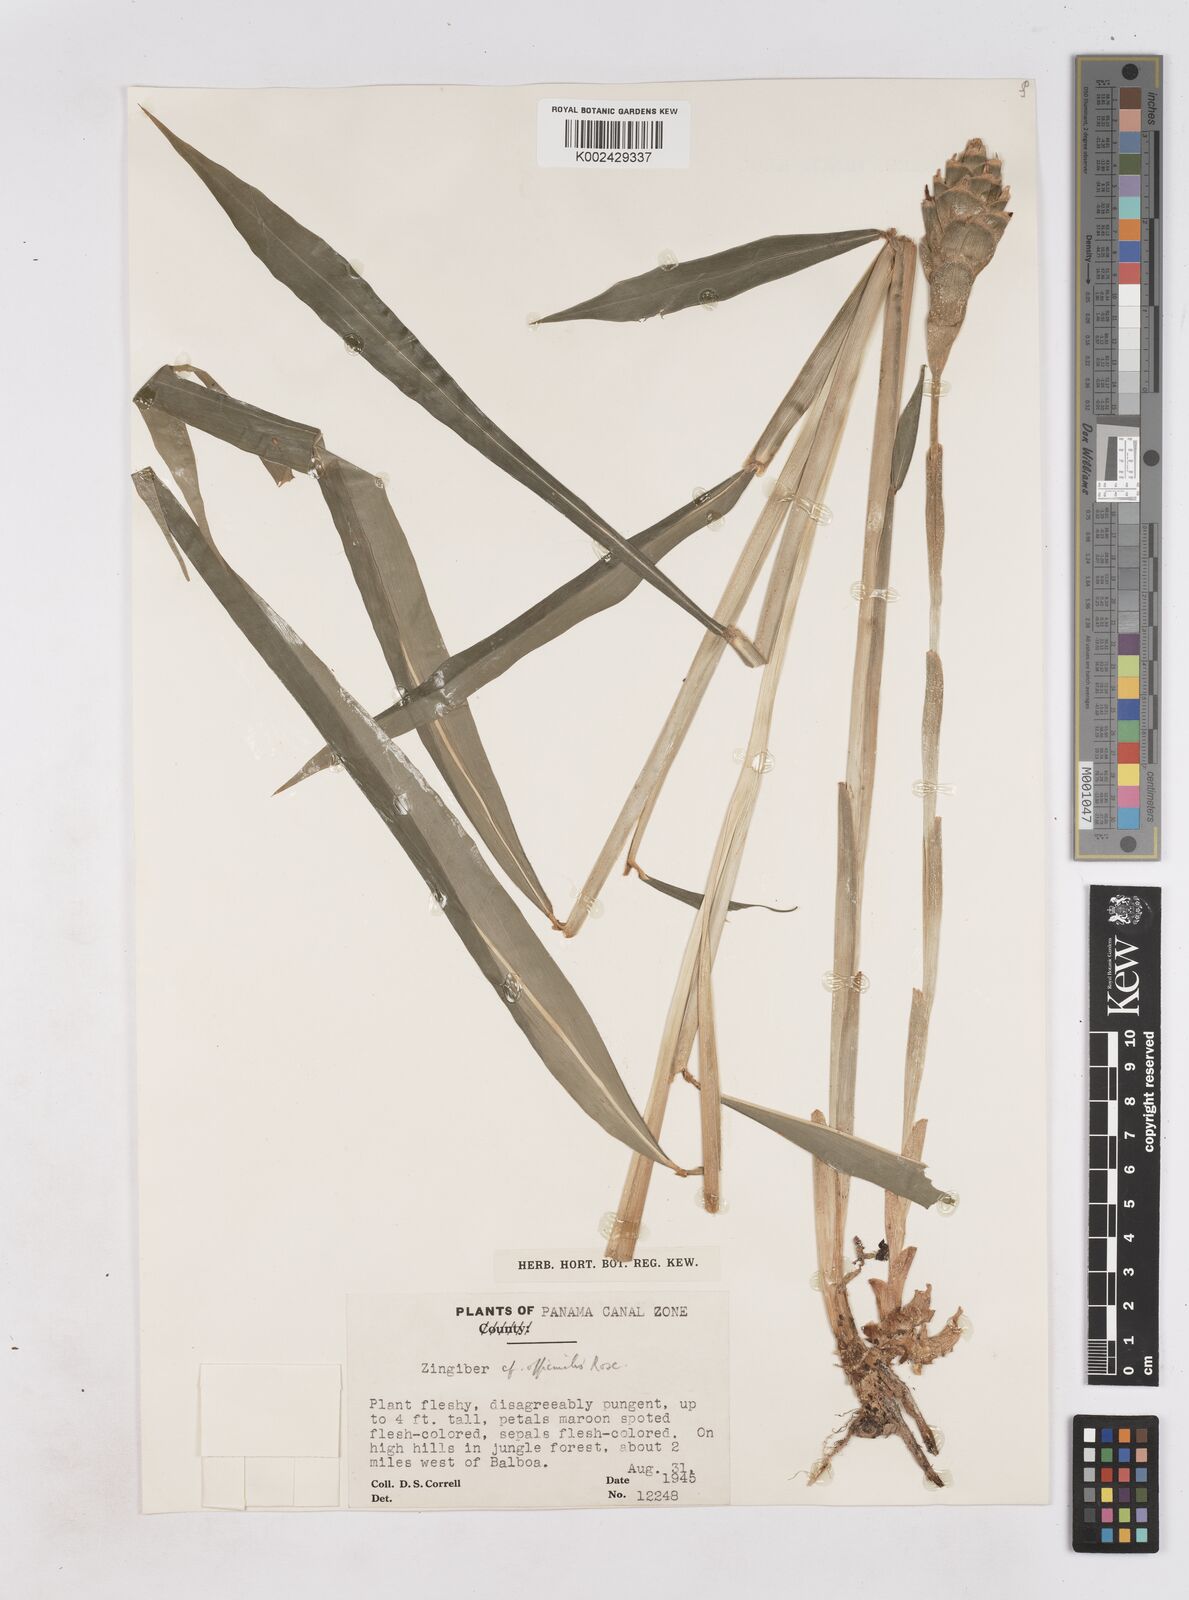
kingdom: Plantae
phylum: Tracheophyta
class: Liliopsida
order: Zingiberales
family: Zingiberaceae
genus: Zingiber
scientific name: Zingiber officinale
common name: Ginger
